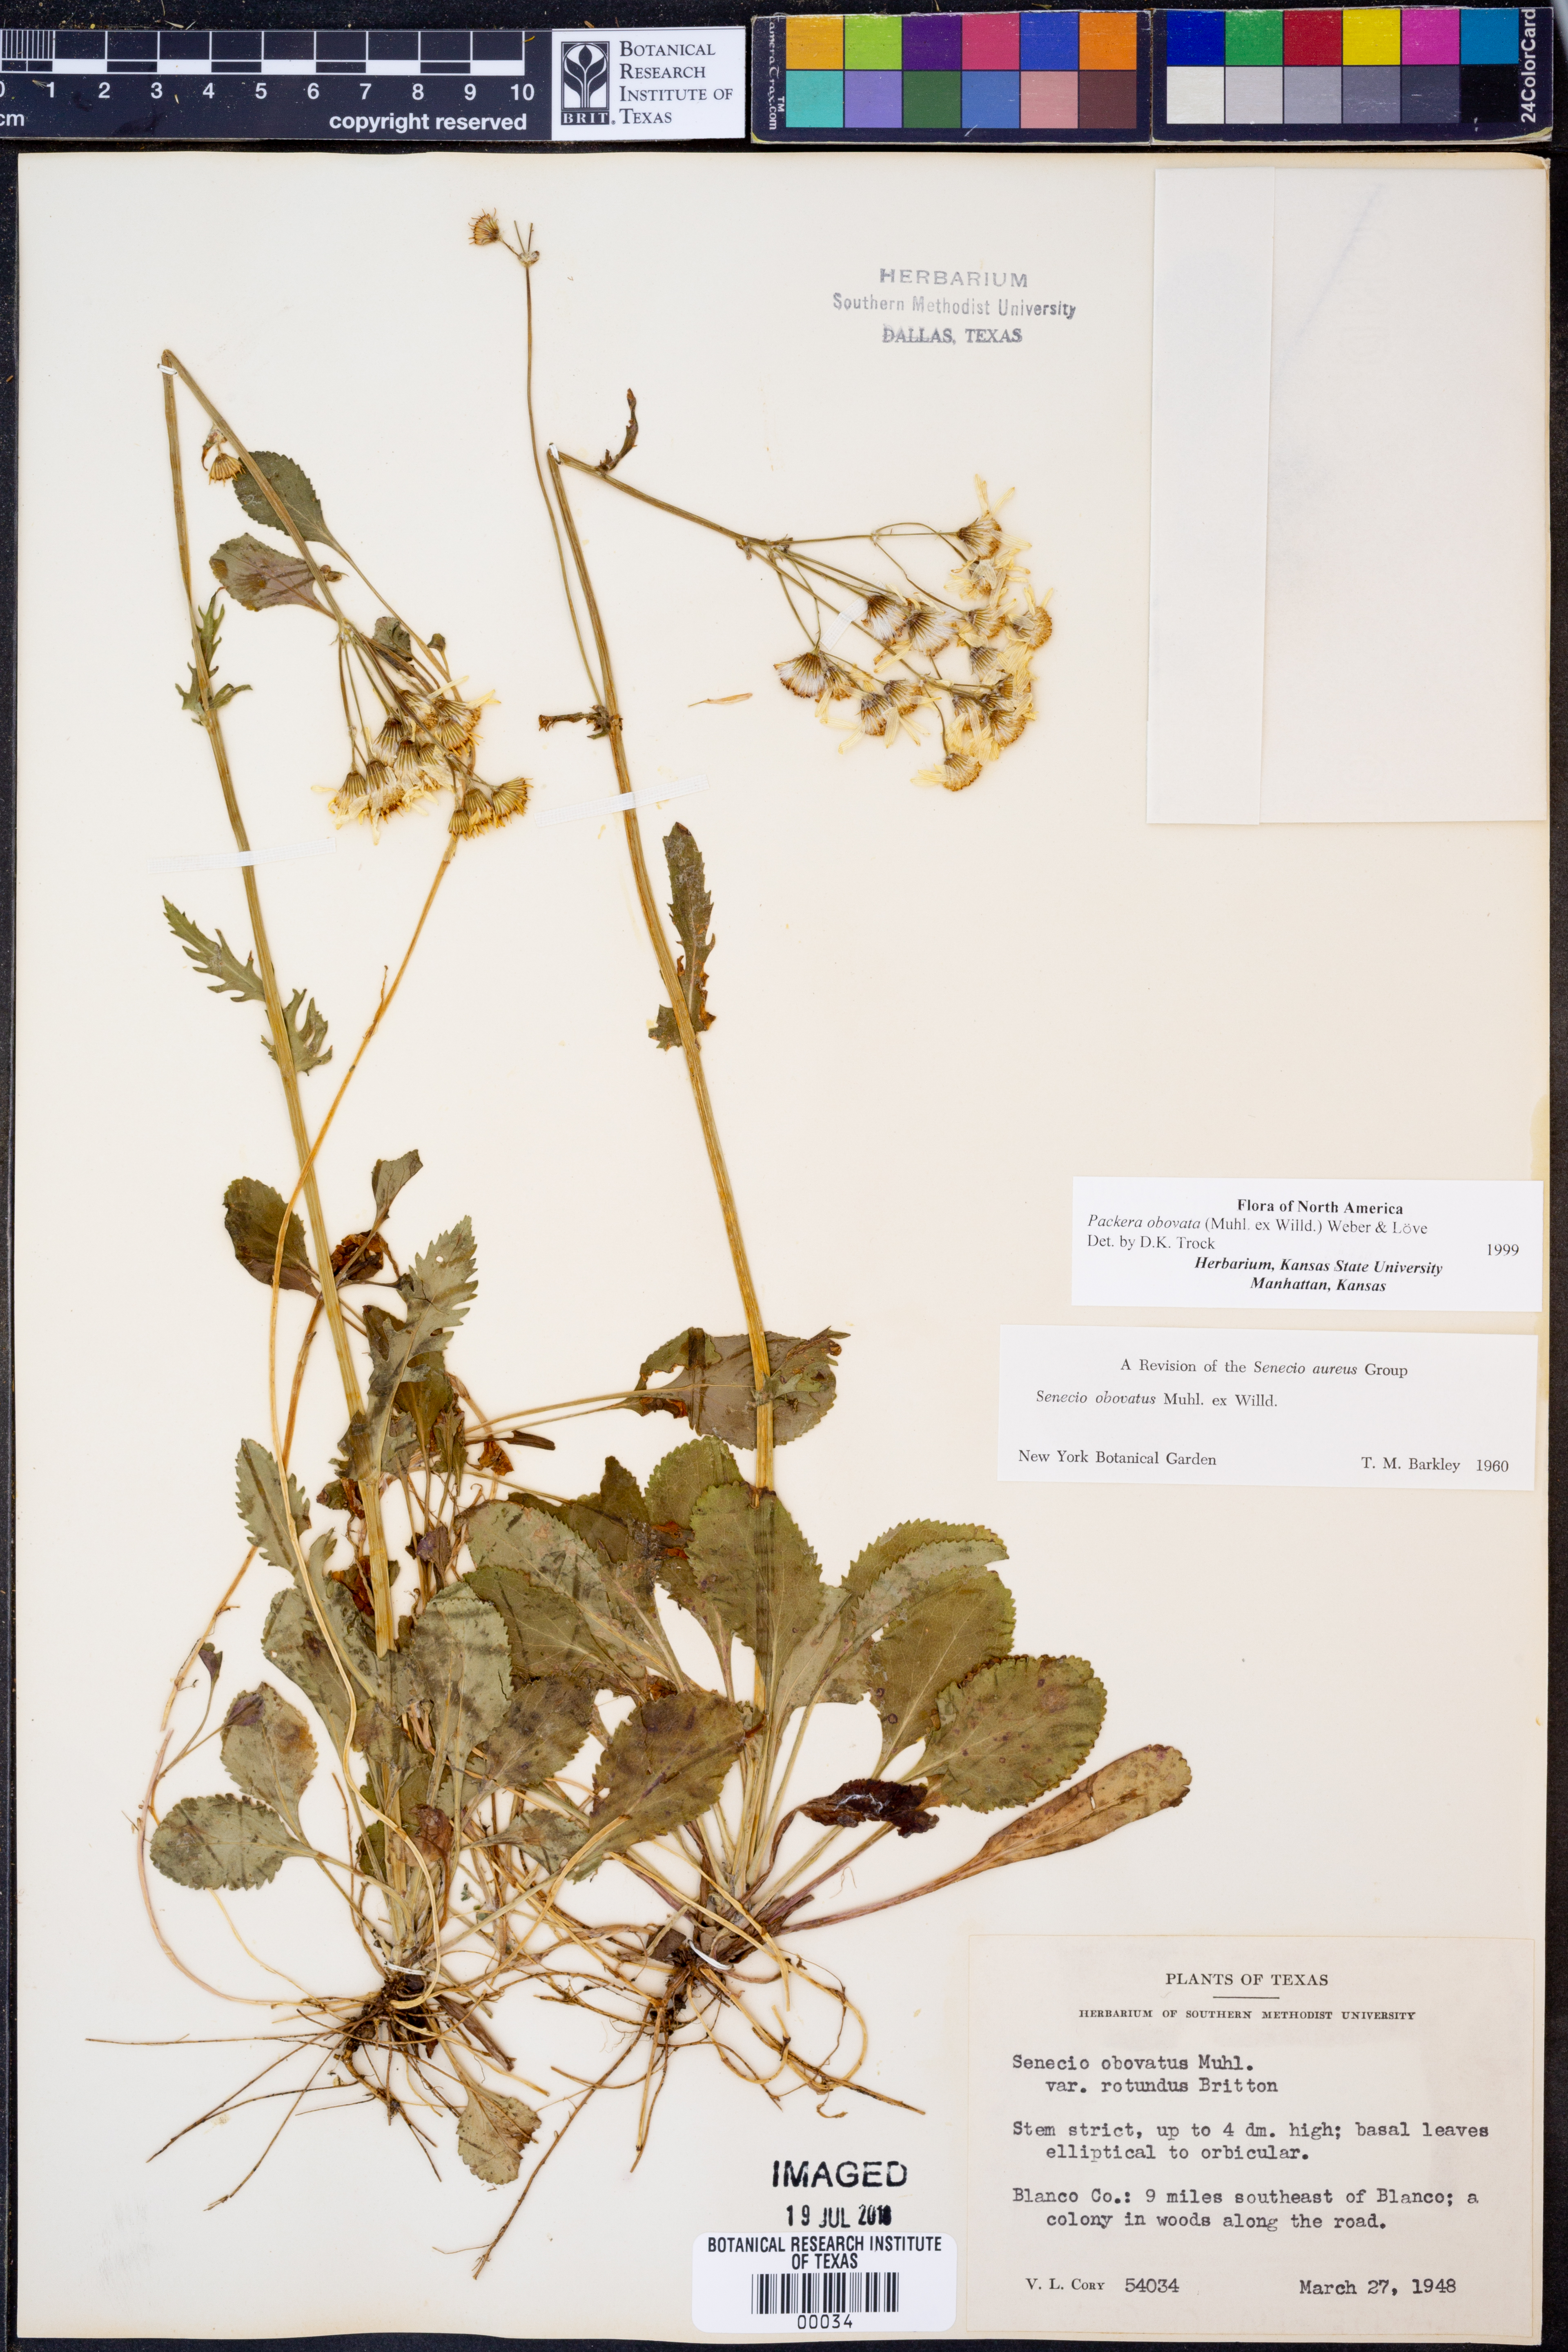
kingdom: Plantae
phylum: Tracheophyta
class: Magnoliopsida
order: Asterales
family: Asteraceae
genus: Packera
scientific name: Packera obovata
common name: Round-leaf ragwort
